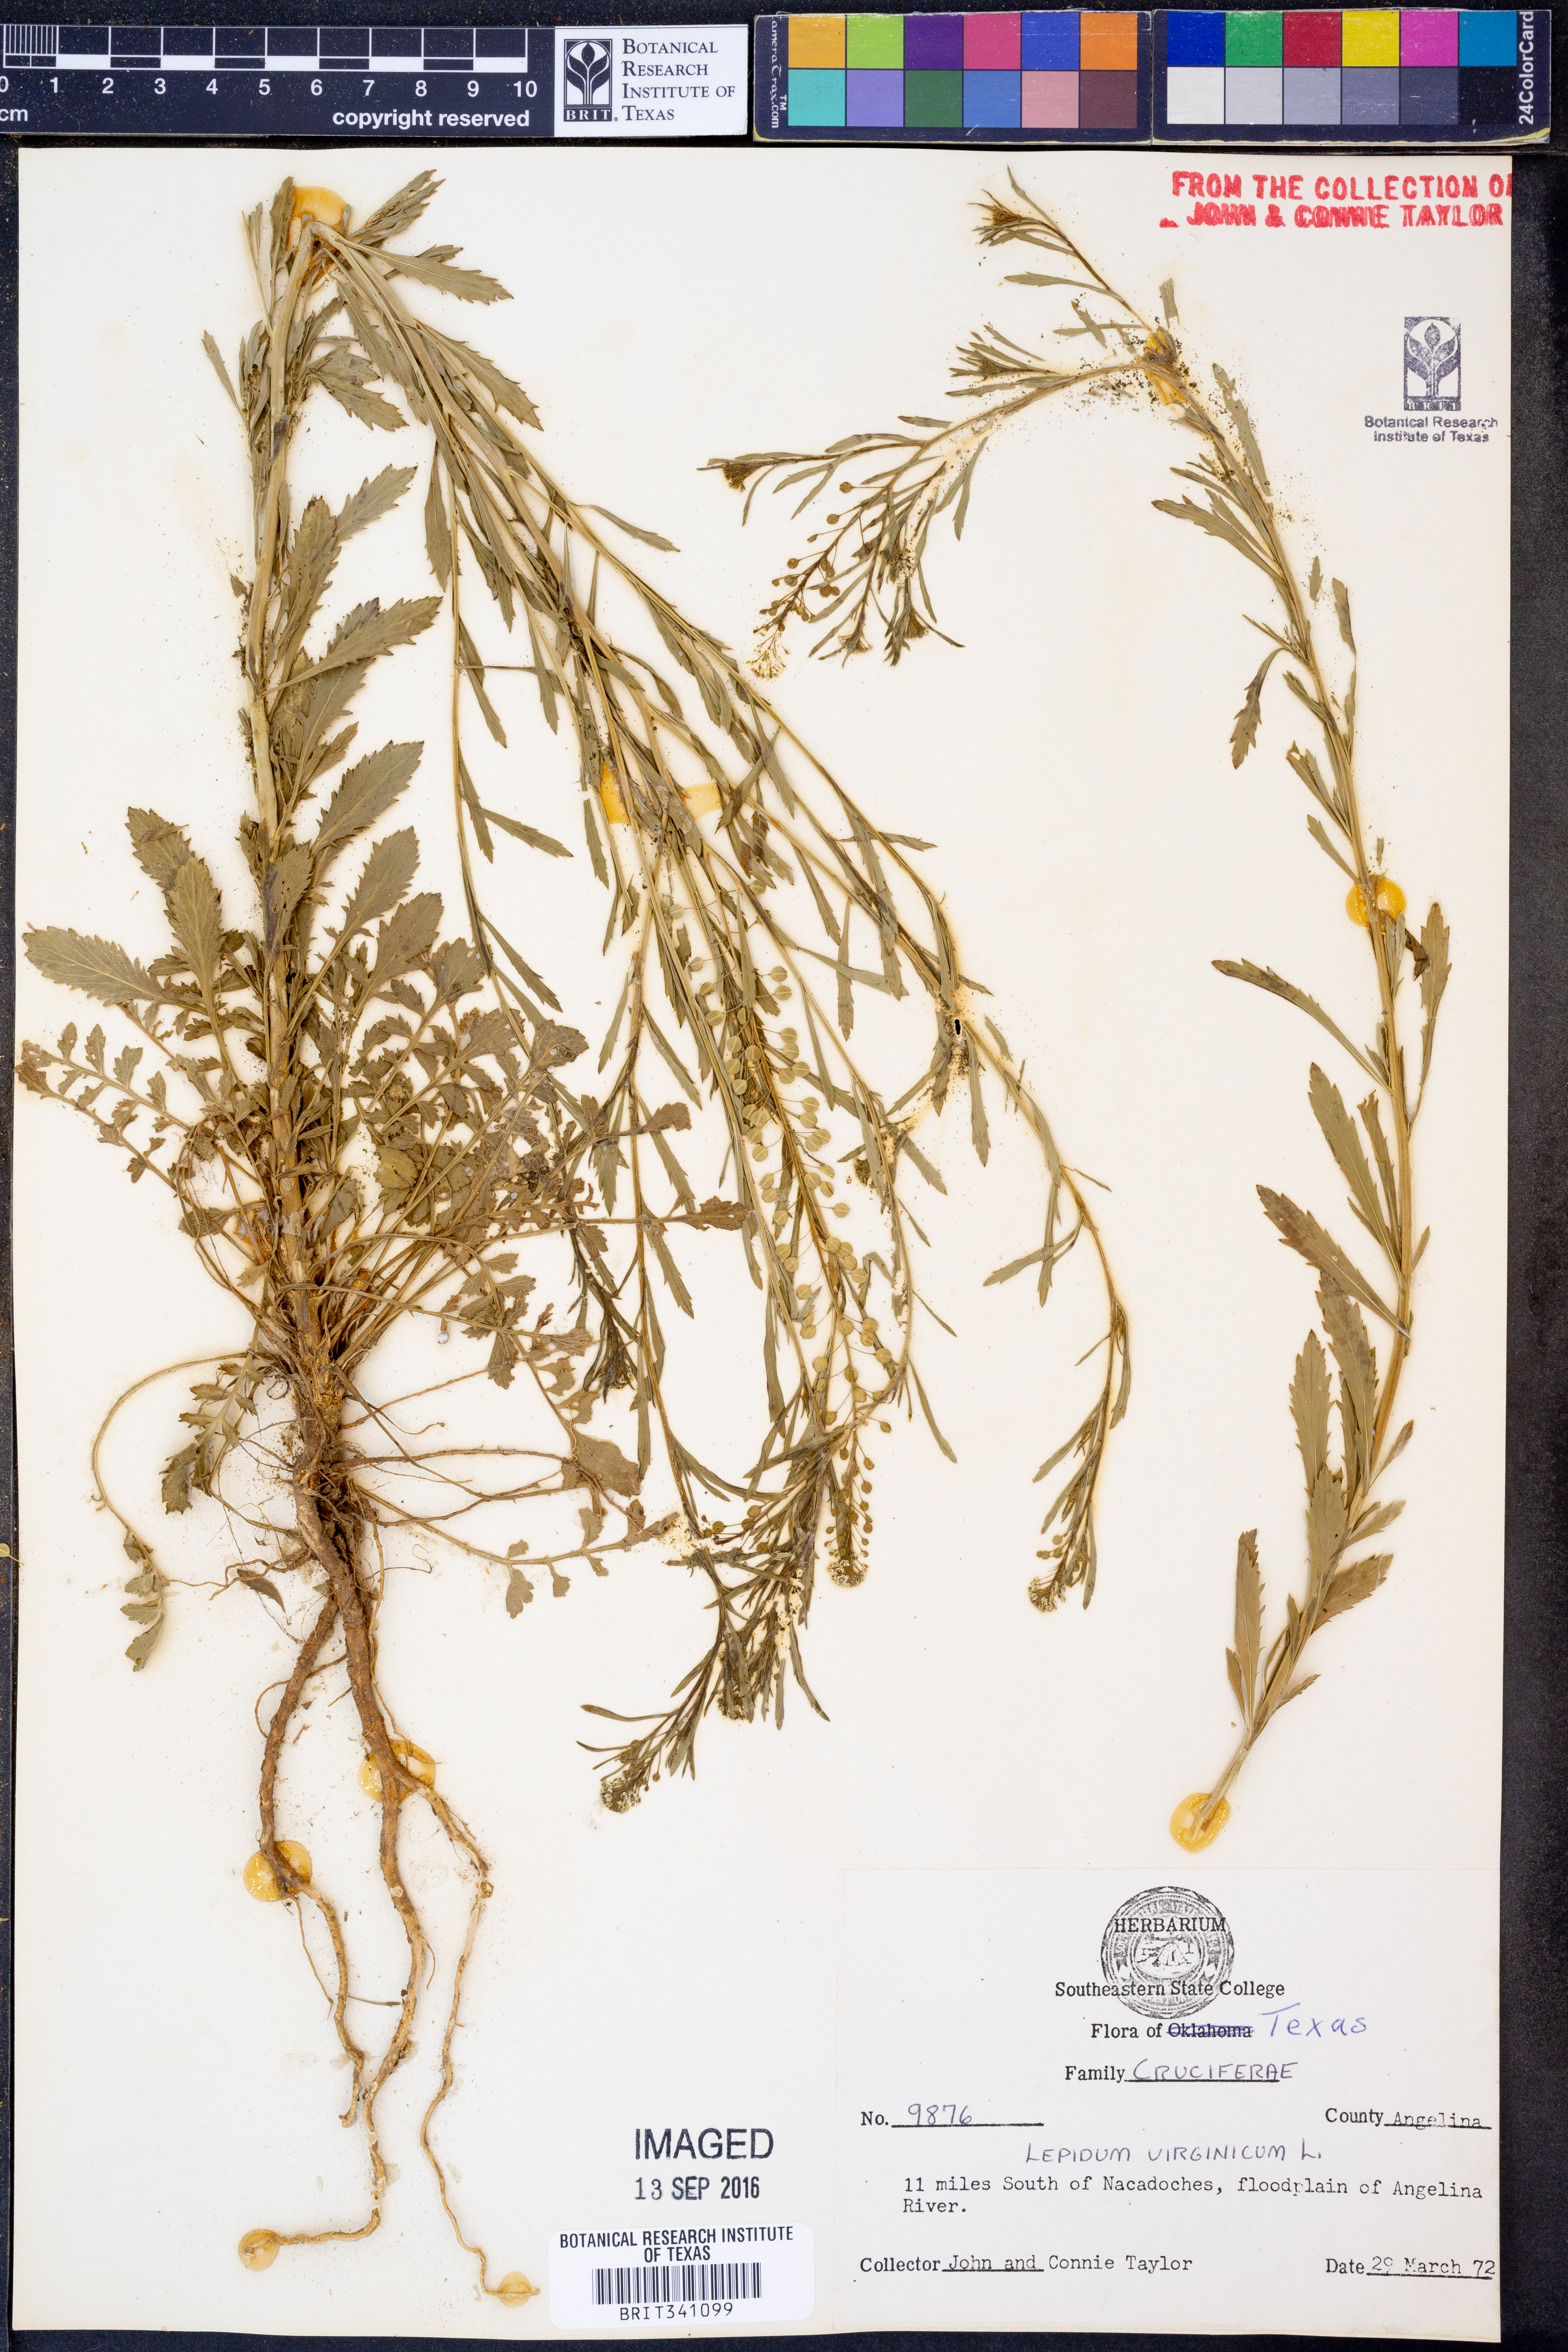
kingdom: Plantae
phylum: Tracheophyta
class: Magnoliopsida
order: Brassicales
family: Brassicaceae
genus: Lepidium
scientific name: Lepidium virginicum
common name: Least pepperwort
